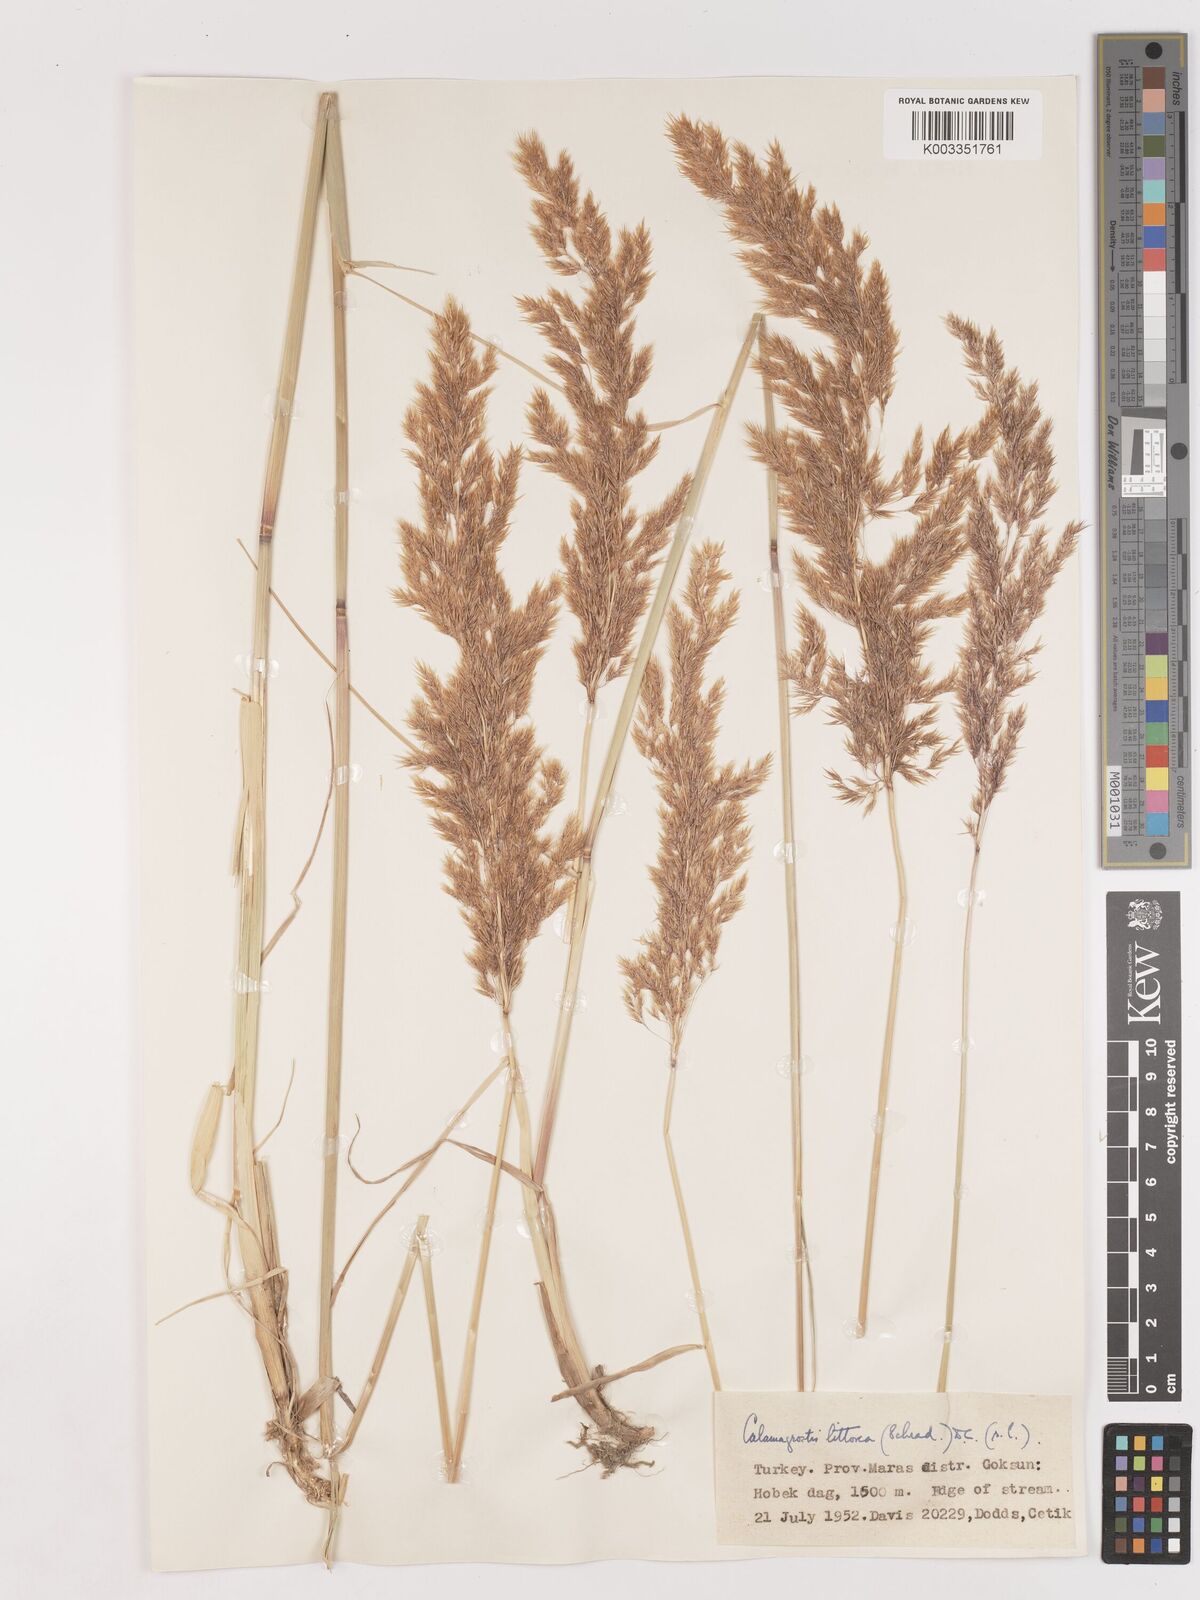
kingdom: Plantae
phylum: Tracheophyta
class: Liliopsida
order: Poales
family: Poaceae
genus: Calamagrostis
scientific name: Calamagrostis pseudophragmites
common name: Coastal small-reed
